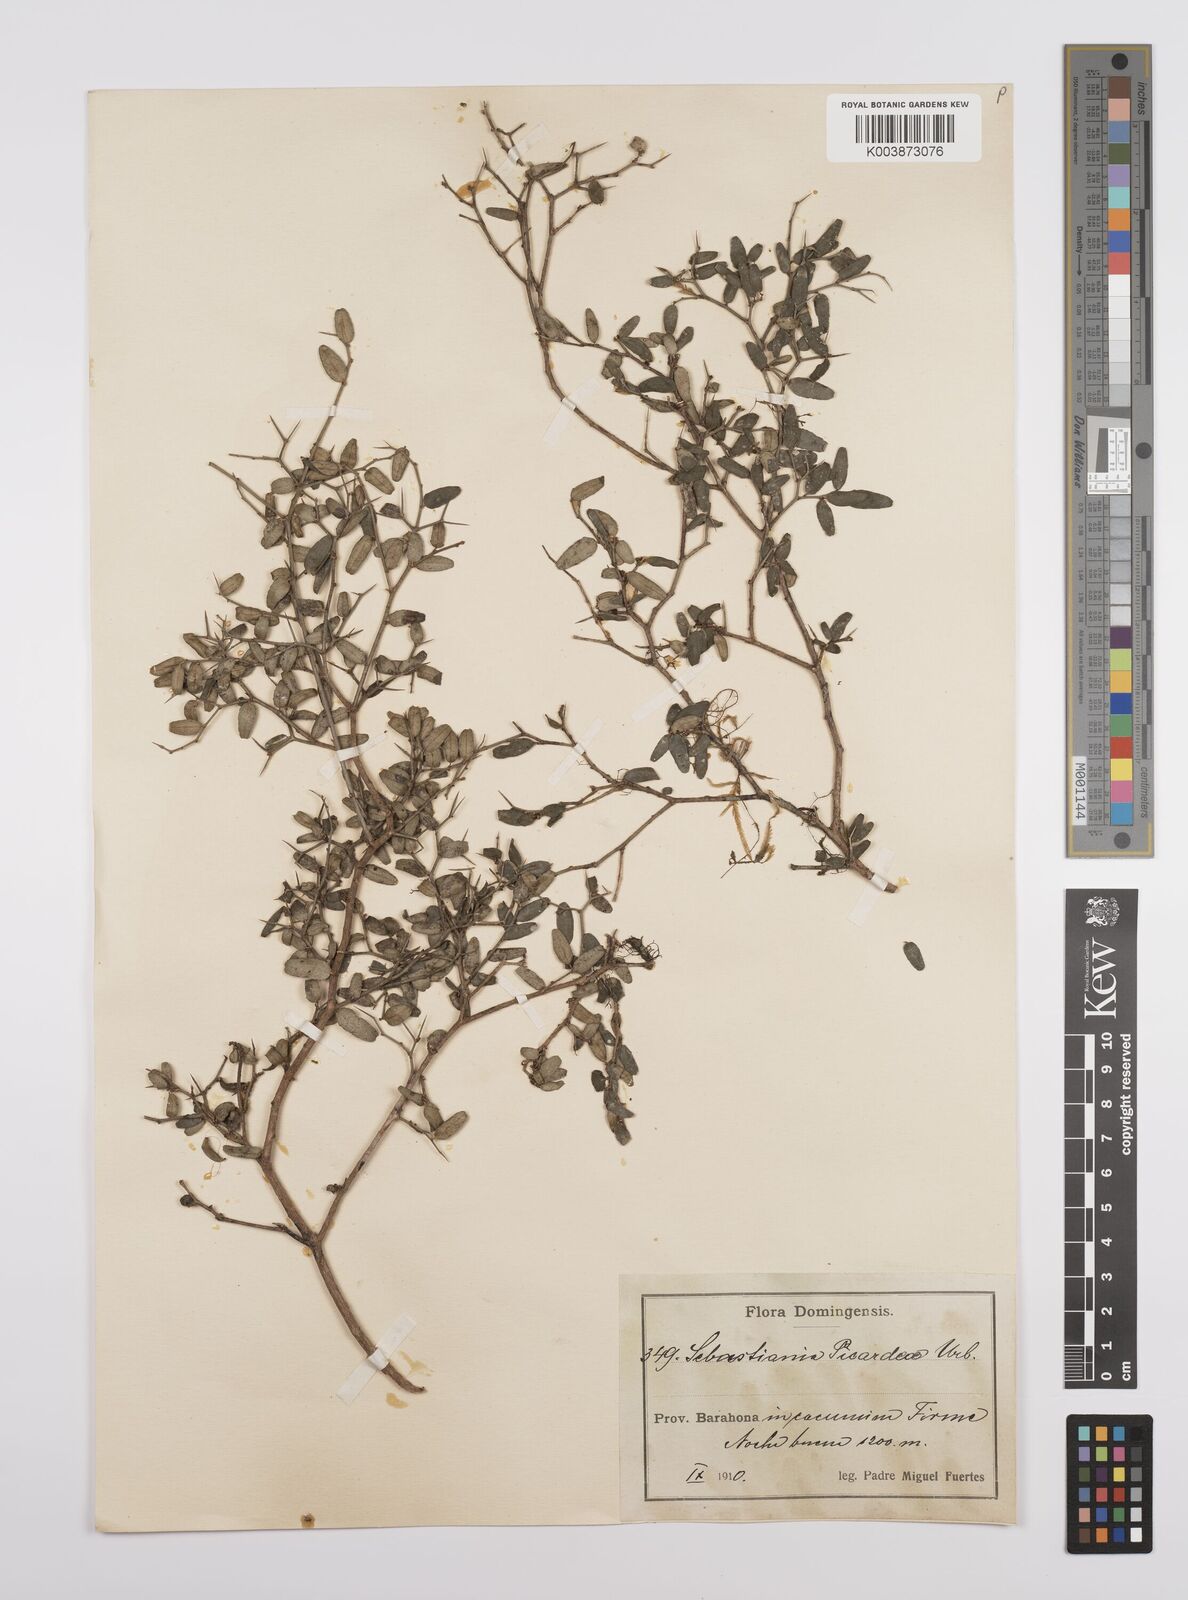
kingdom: Plantae
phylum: Tracheophyta
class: Magnoliopsida
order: Malpighiales
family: Euphorbiaceae
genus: Sebastiania
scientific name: Sebastiania picardae
